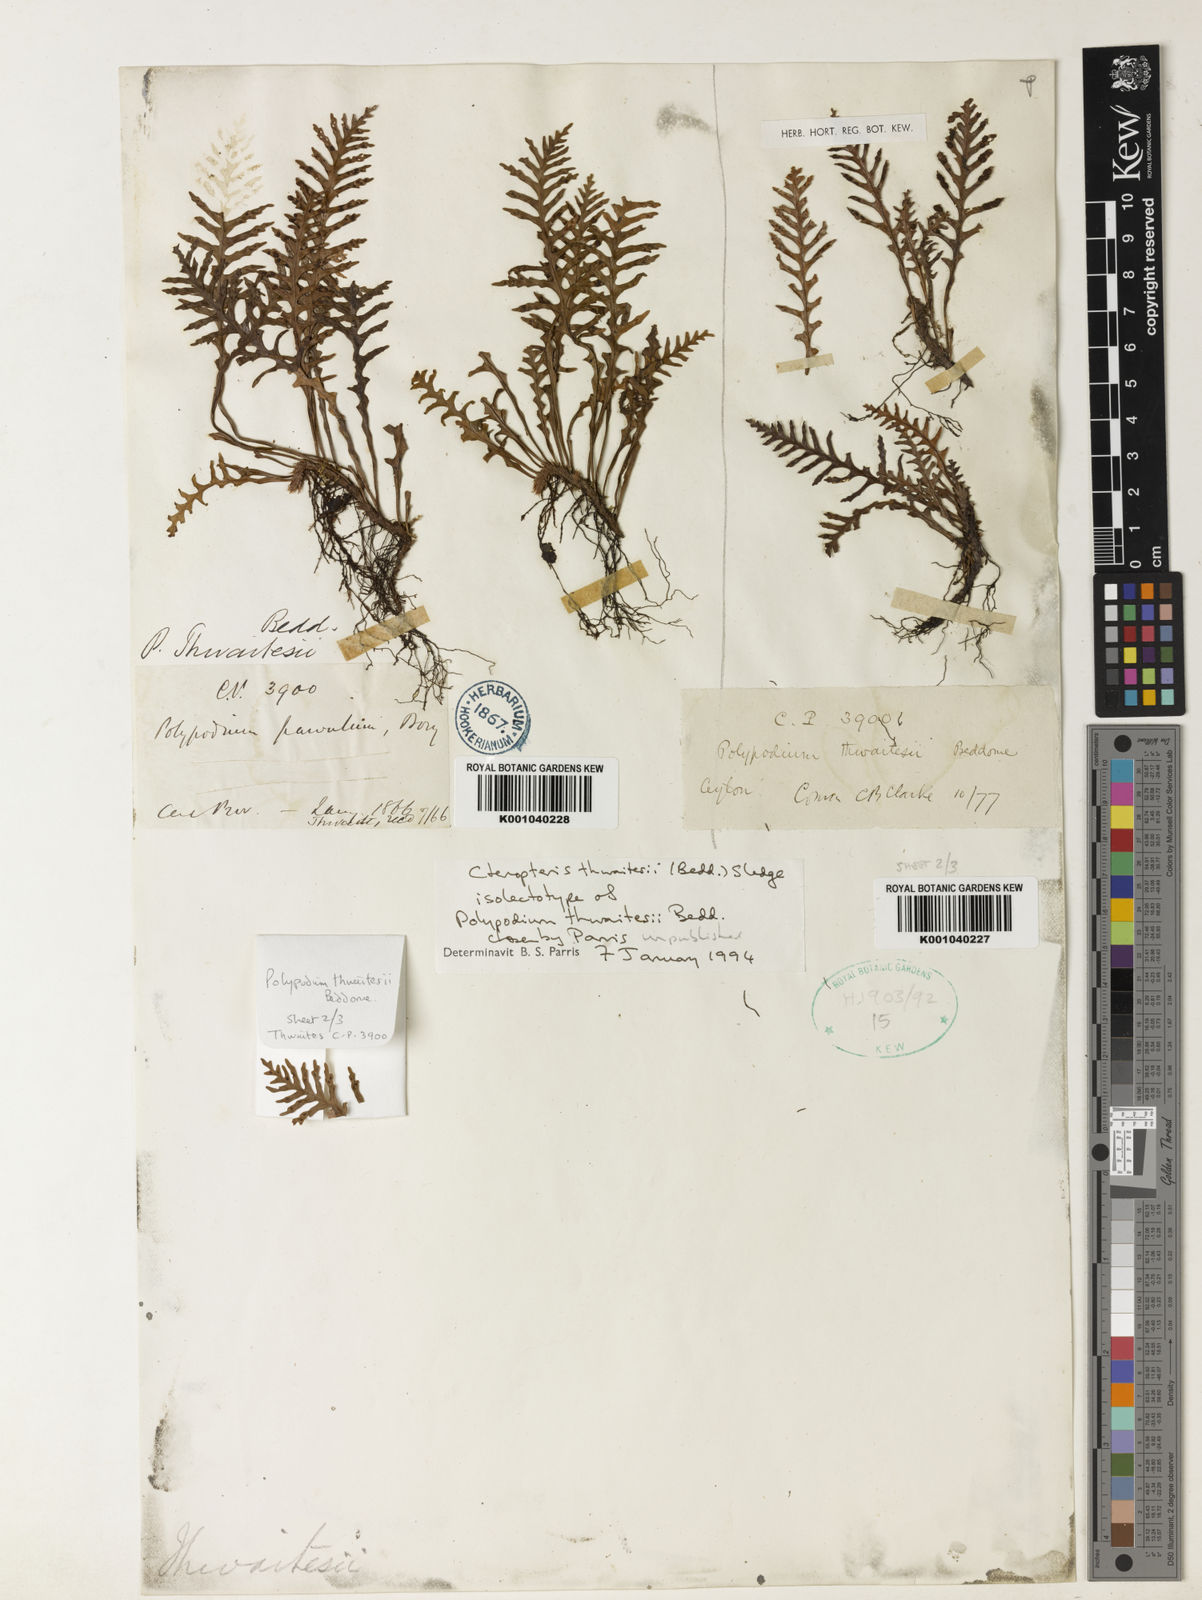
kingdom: Plantae
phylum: Tracheophyta
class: Polypodiopsida
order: Polypodiales
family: Polypodiaceae
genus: Ctenopterella
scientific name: Ctenopterella thwaitesii
